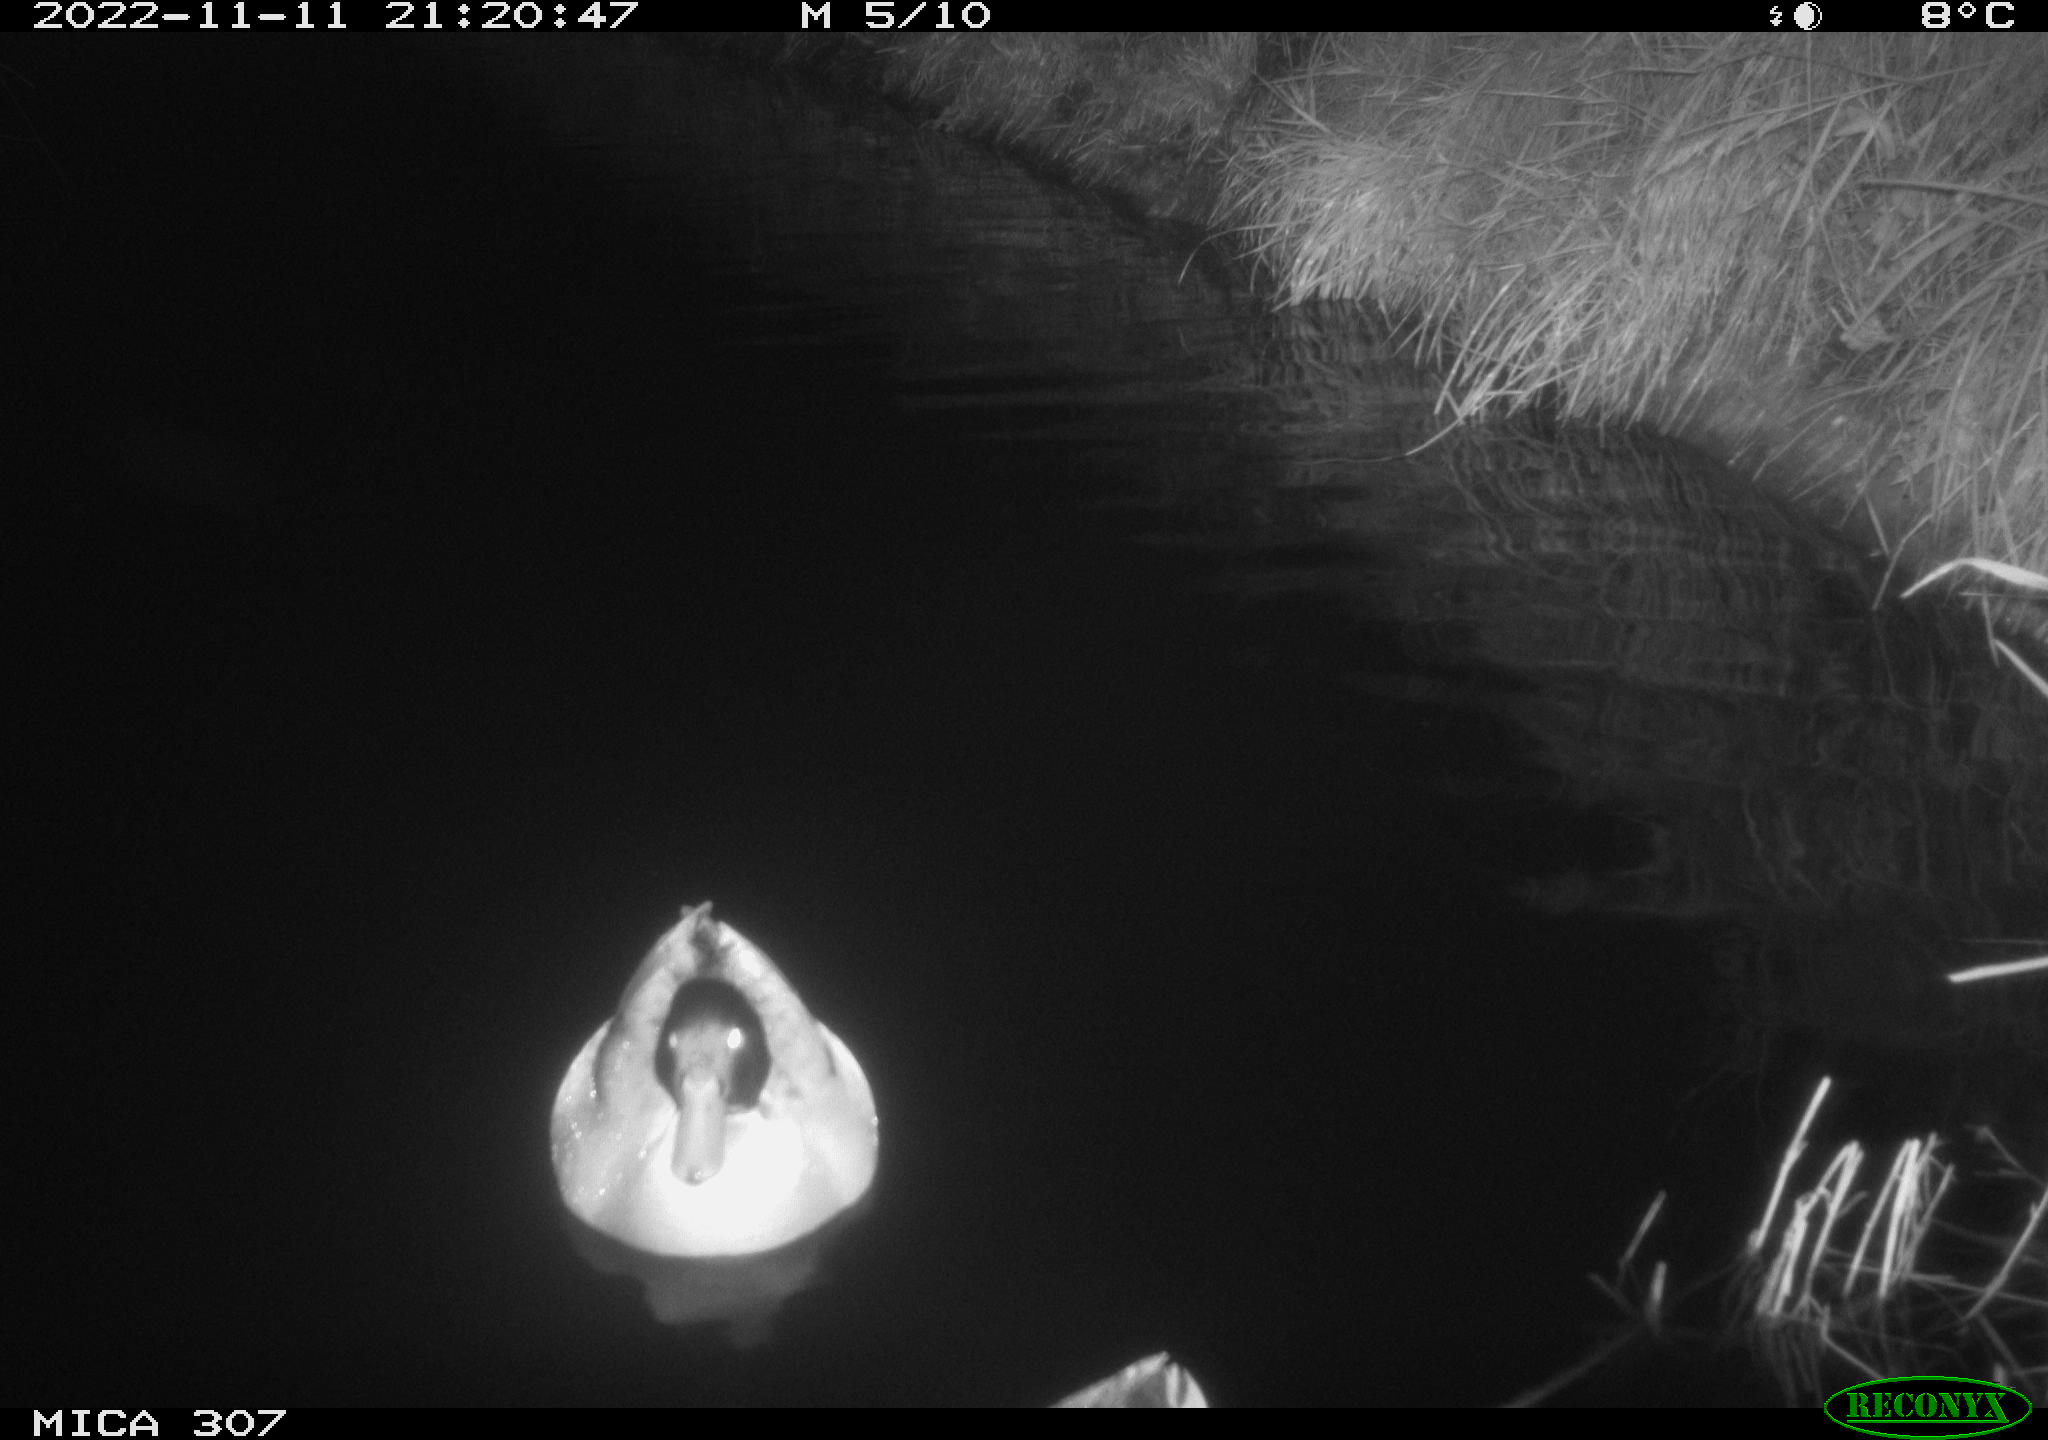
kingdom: Animalia
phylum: Chordata
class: Aves
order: Anseriformes
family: Anatidae
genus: Anas
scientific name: Anas
